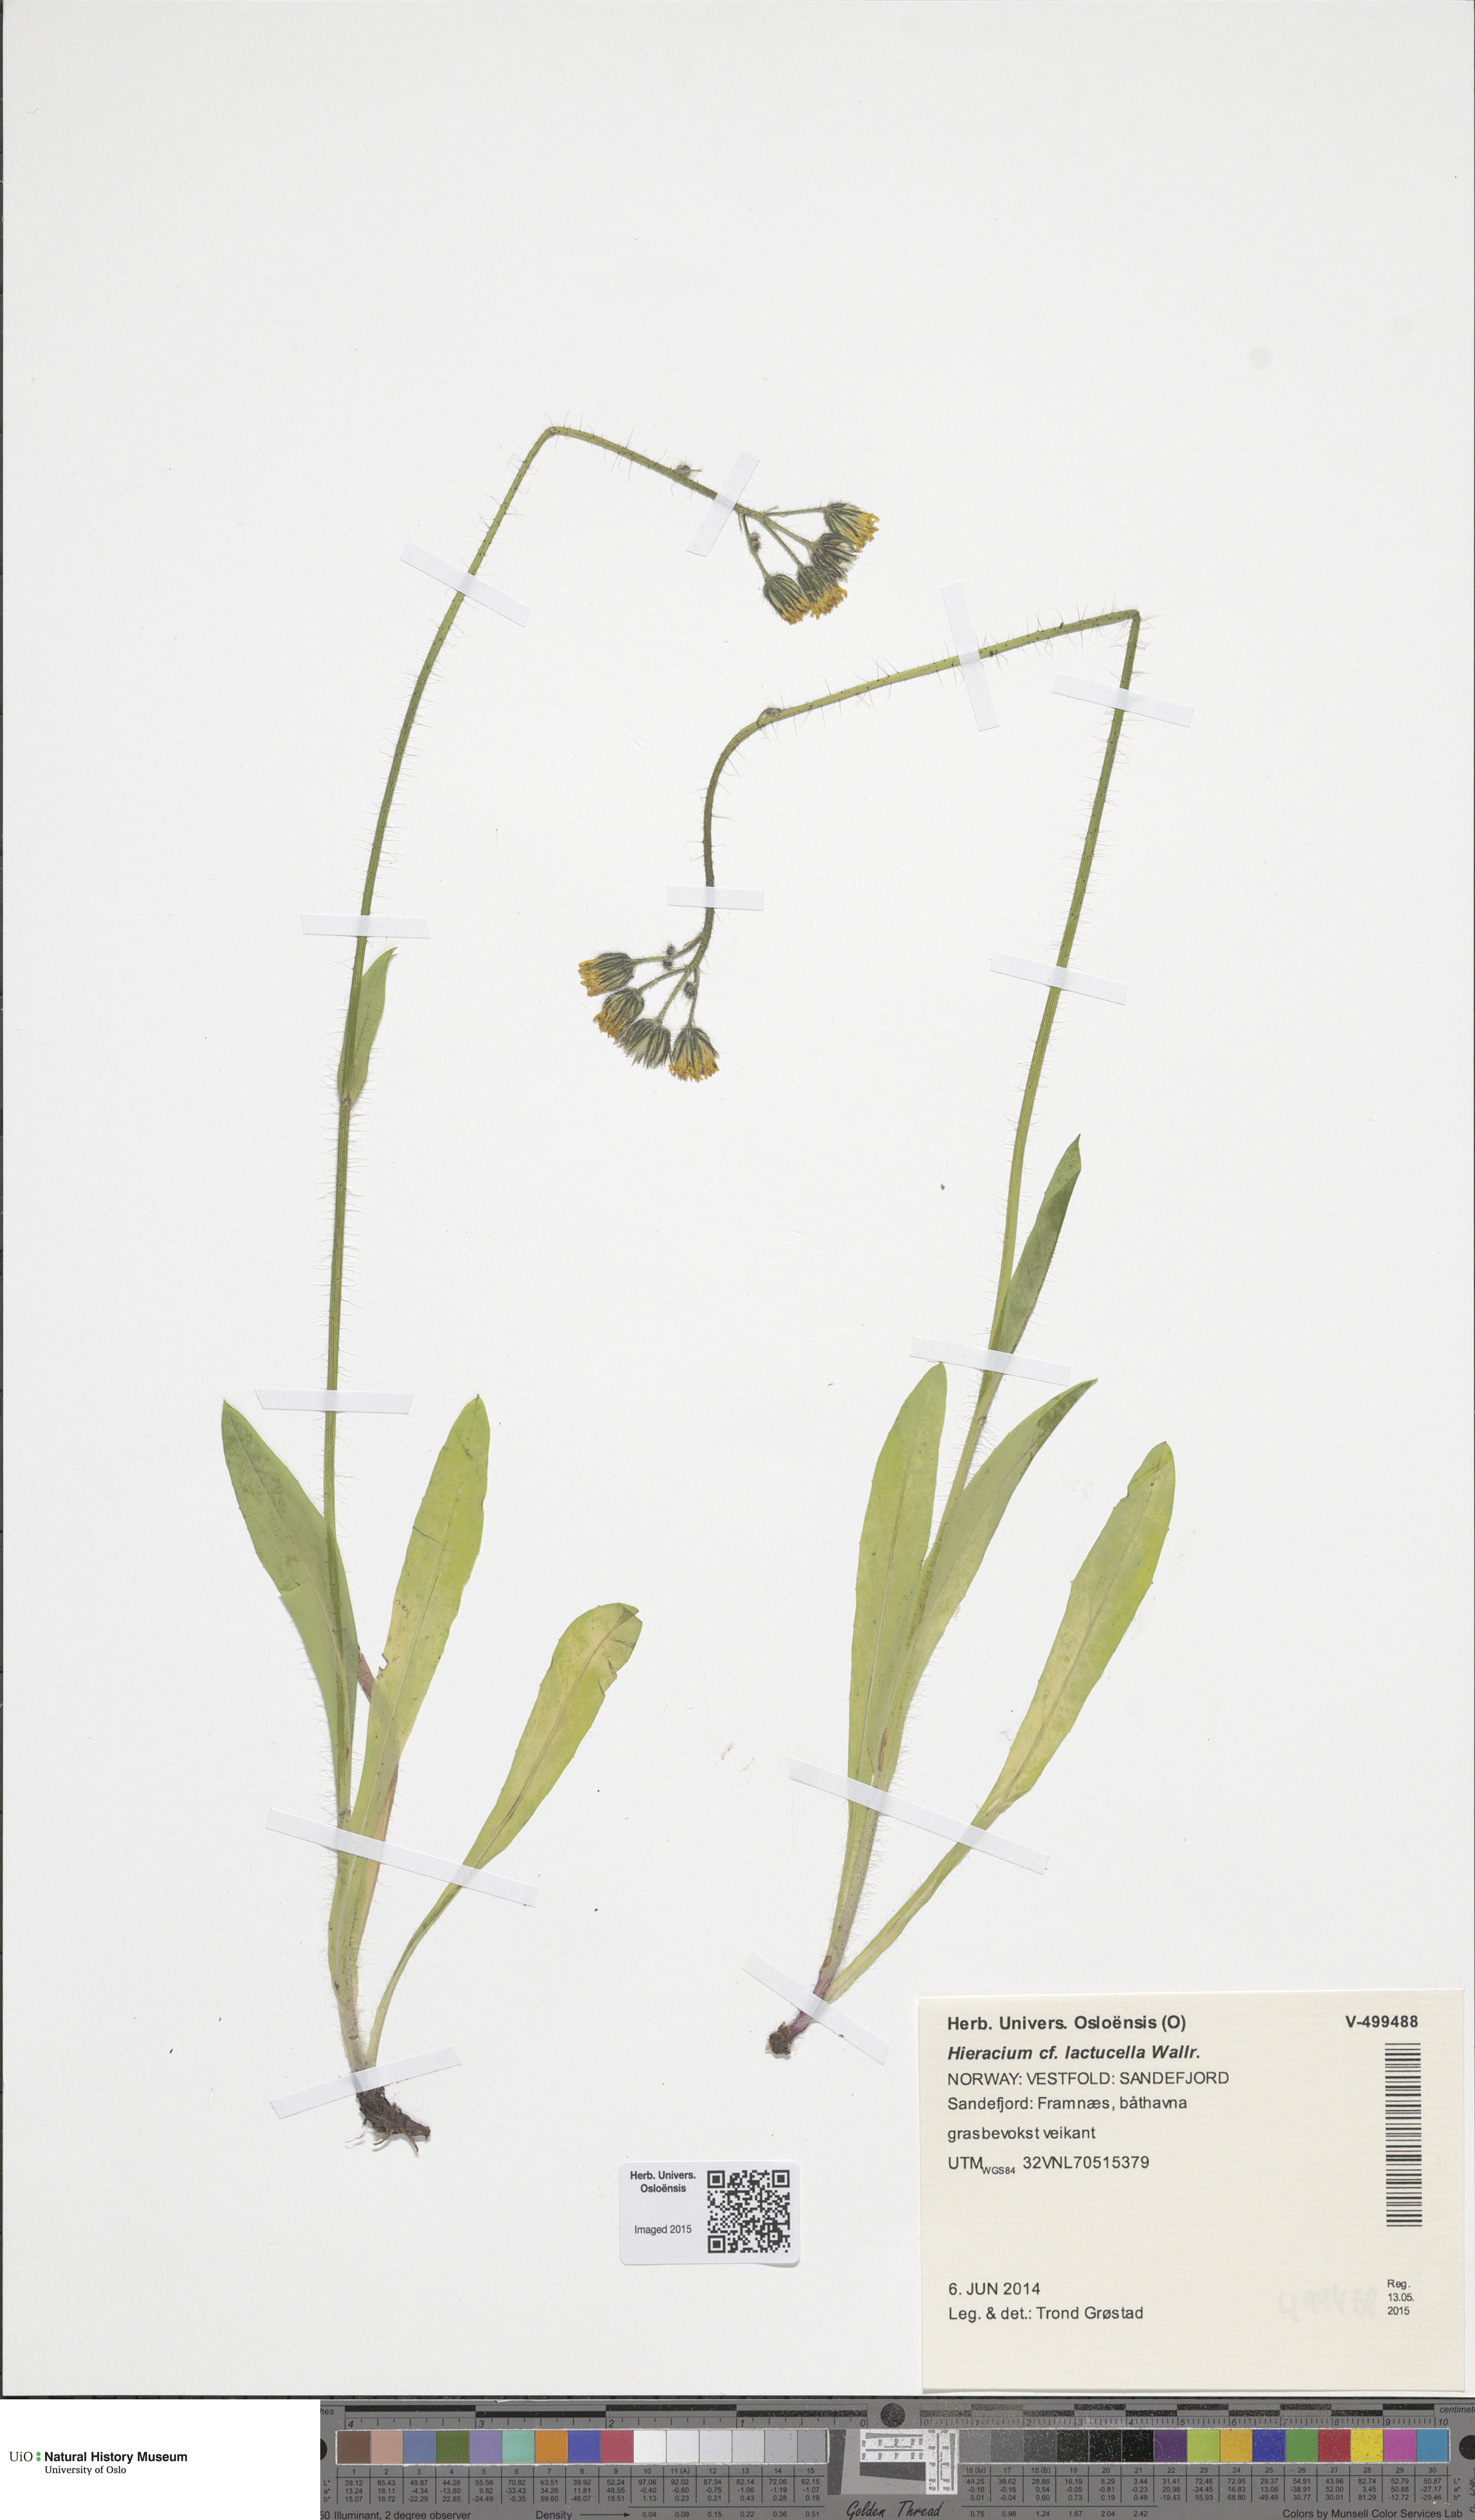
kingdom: Plantae
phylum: Tracheophyta
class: Magnoliopsida
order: Asterales
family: Asteraceae
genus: Pilosella
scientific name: Pilosella lactucella
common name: Glaucous fox-and-cubs
